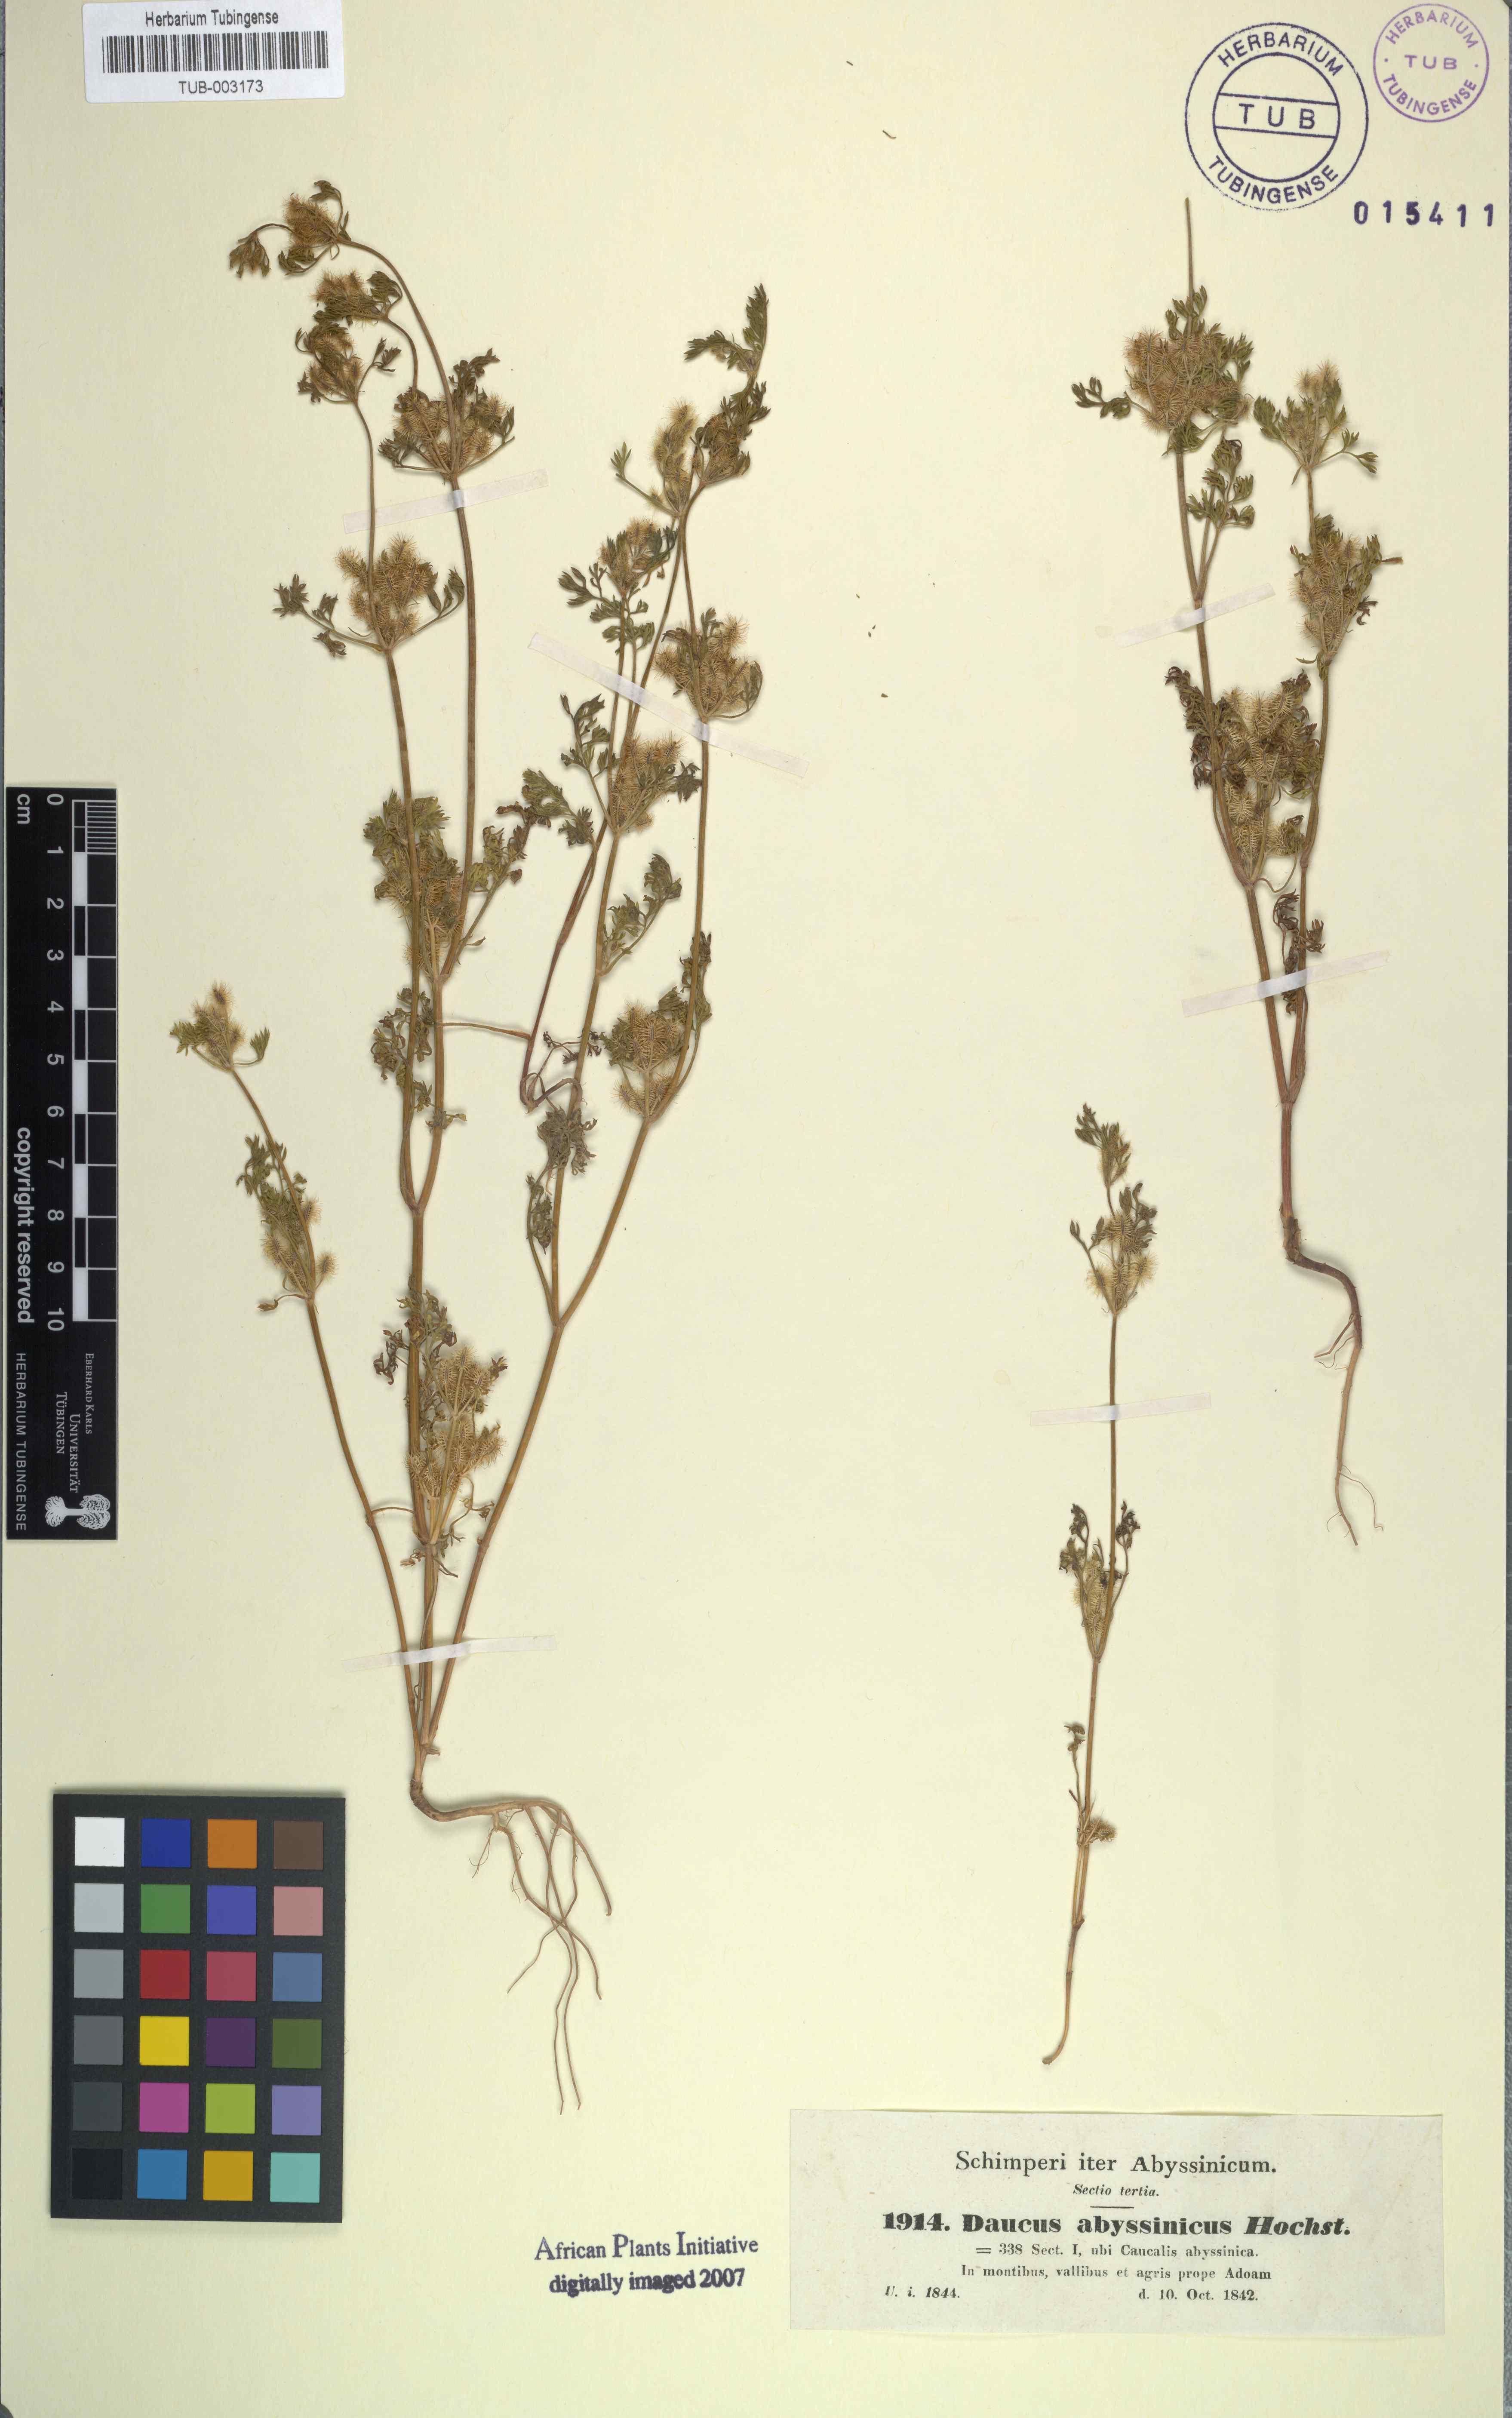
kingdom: Plantae
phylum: Tracheophyta
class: Magnoliopsida
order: Apiales
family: Apiaceae
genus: Daucus
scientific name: Daucus hochstetteri
